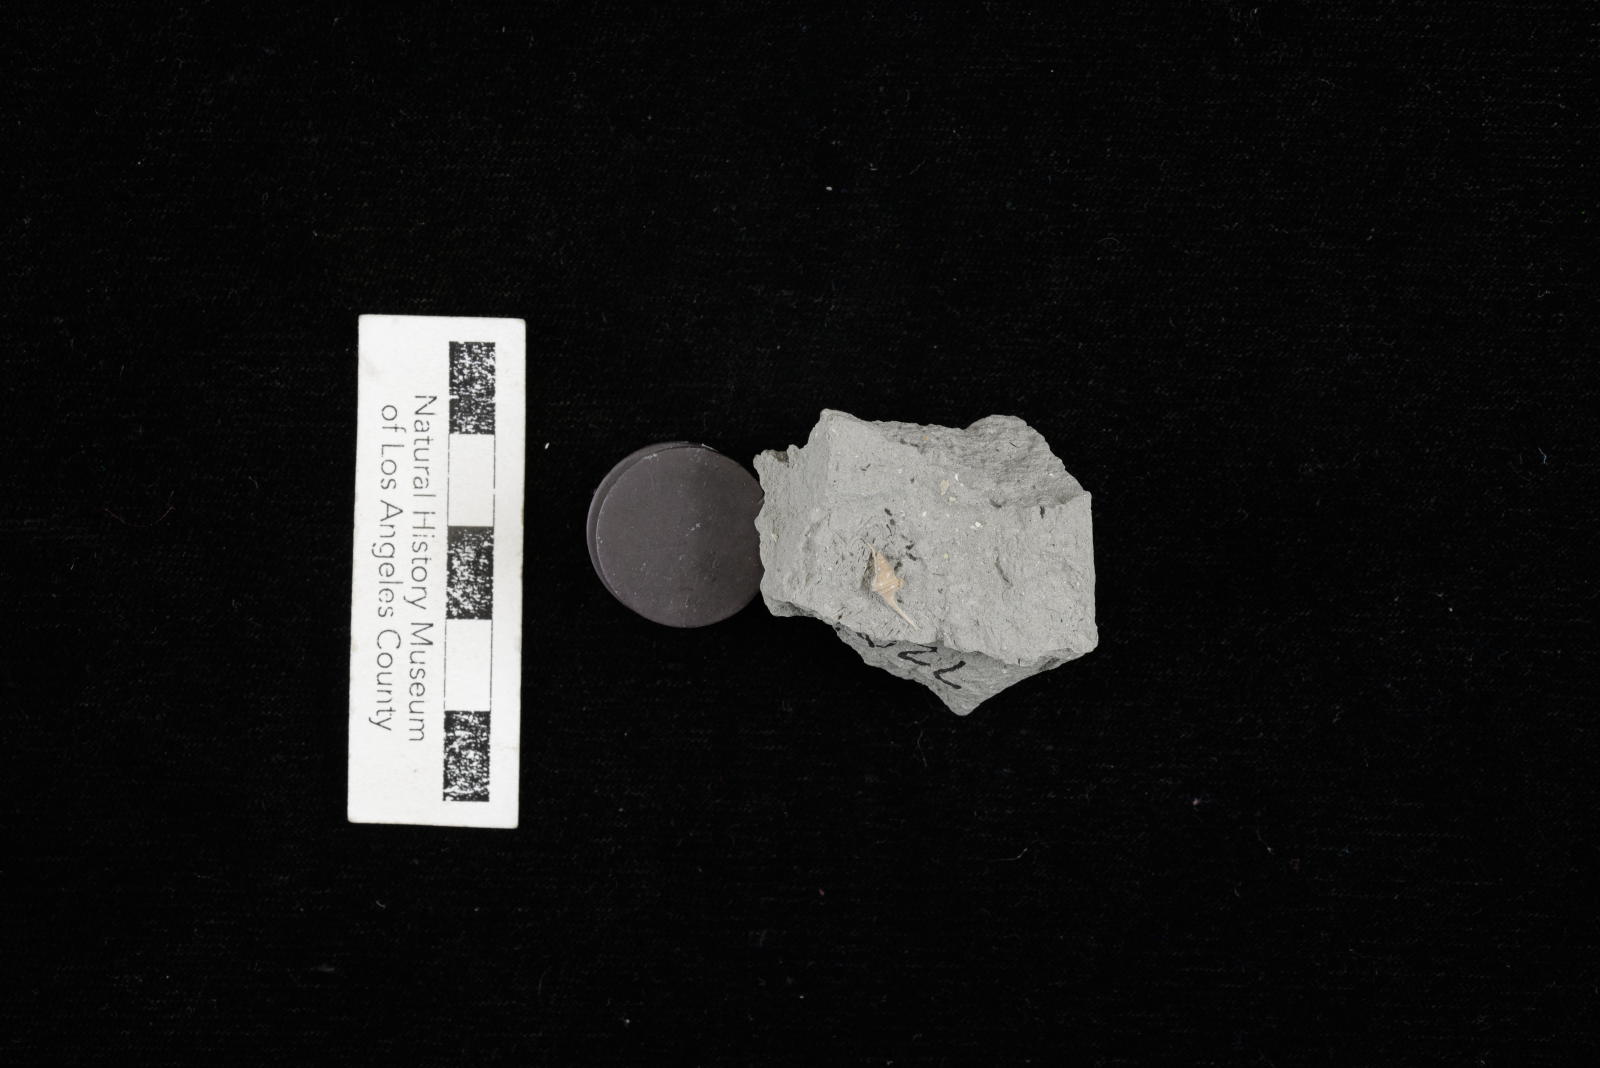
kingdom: Animalia
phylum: Mollusca
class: Gastropoda
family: Turritellidae
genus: Turritella
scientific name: Turritella chicoensis
